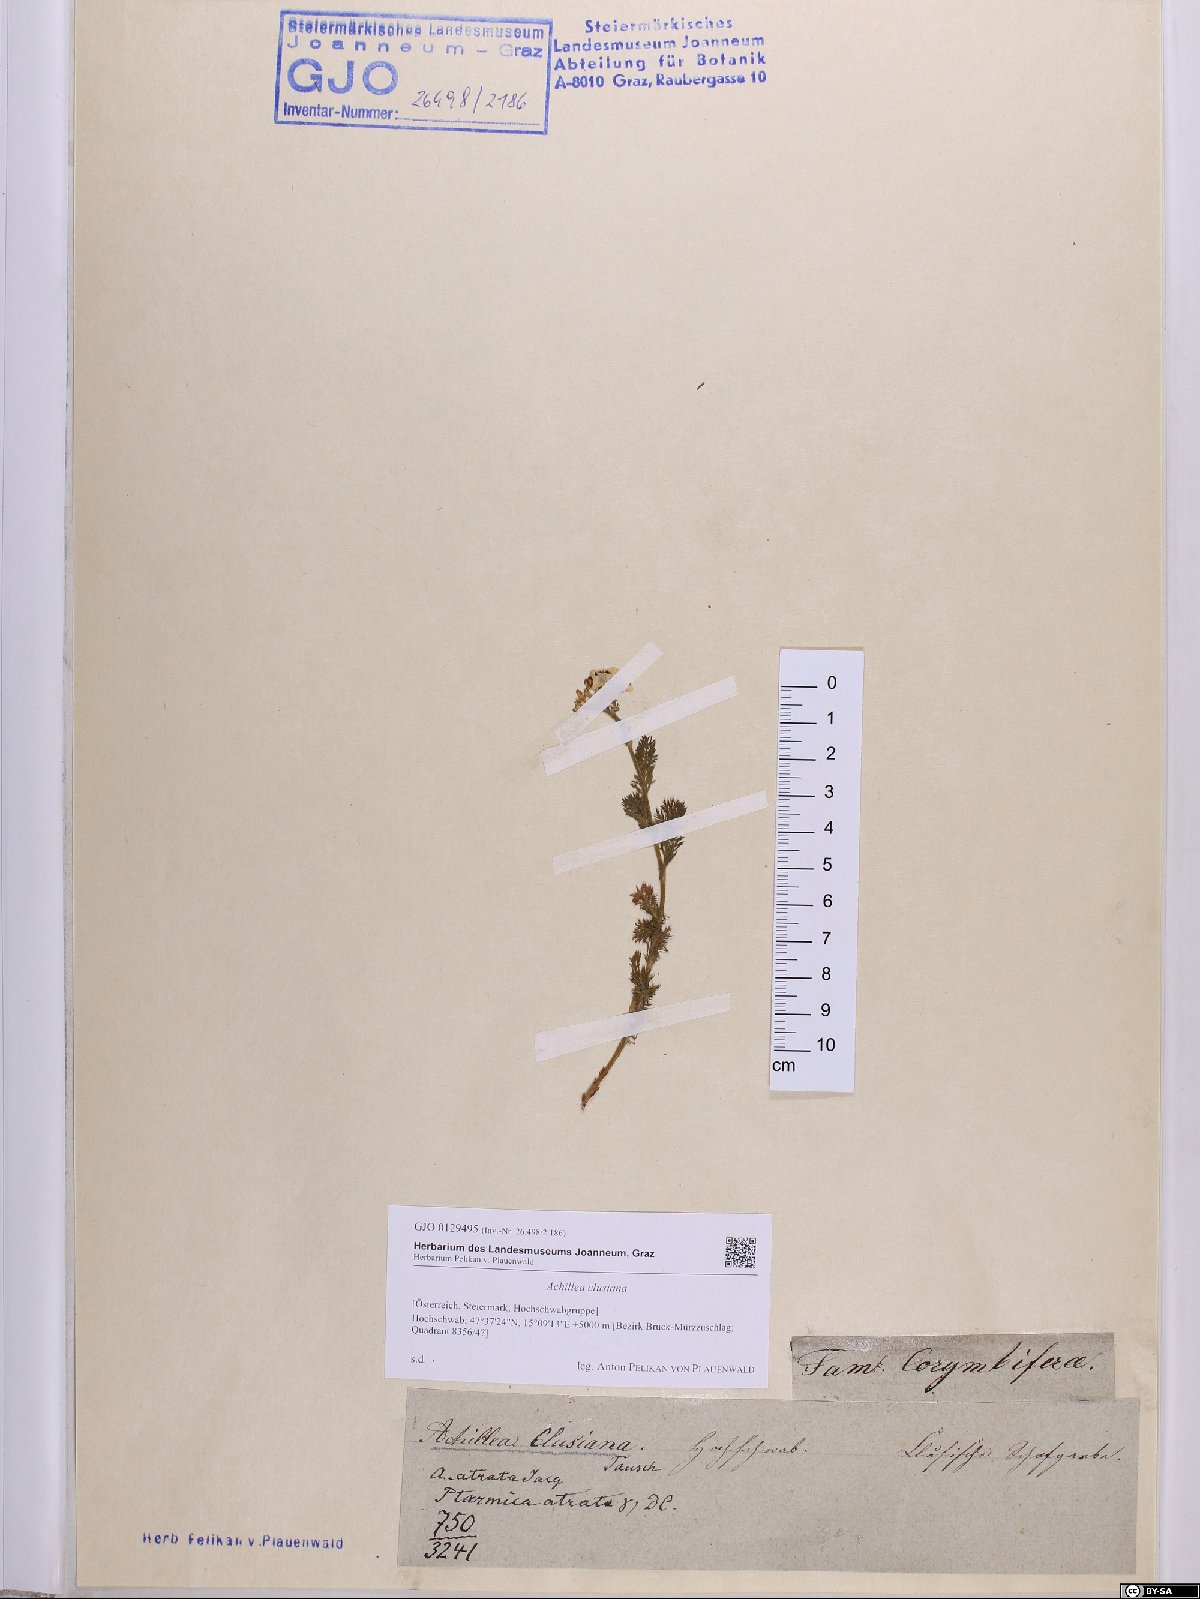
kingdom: Plantae
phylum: Tracheophyta
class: Magnoliopsida
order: Asterales
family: Asteraceae
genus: Achillea
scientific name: Achillea clusiana
